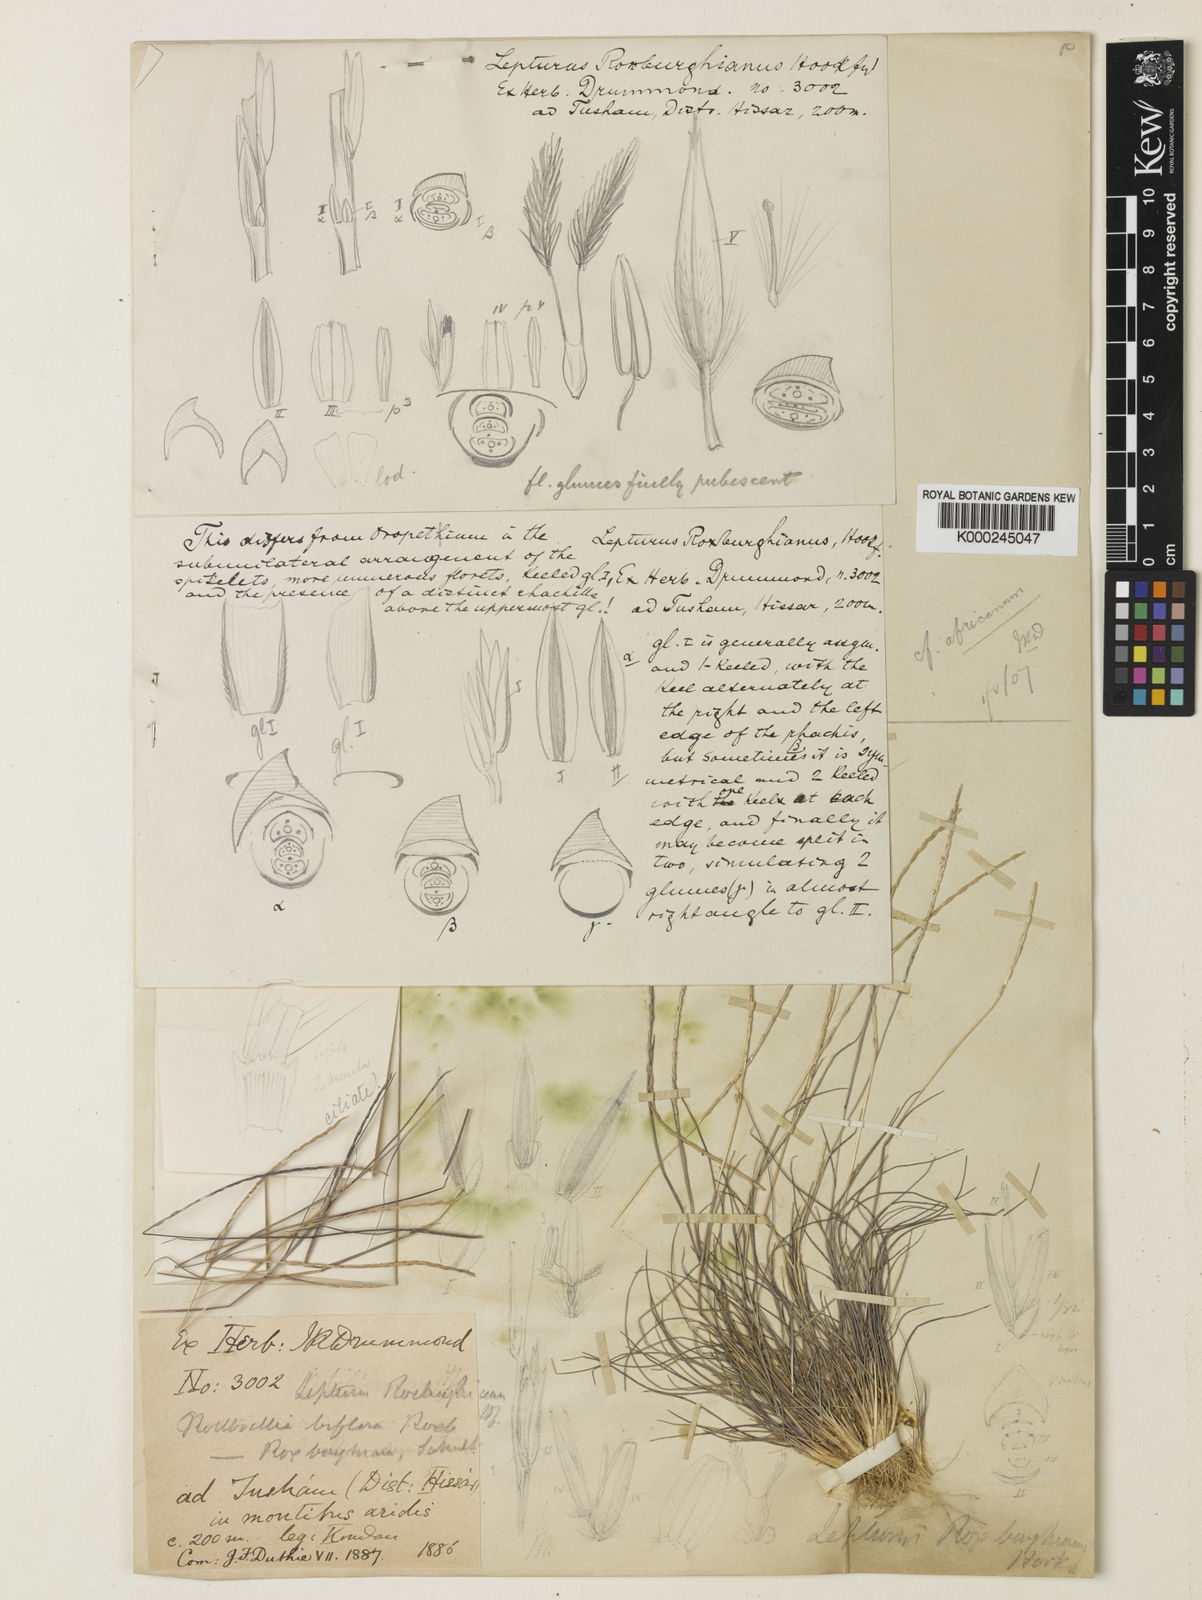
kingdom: Plantae
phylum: Tracheophyta
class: Liliopsida
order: Poales
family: Poaceae
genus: Oropetium
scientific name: Oropetium roxburghianum
